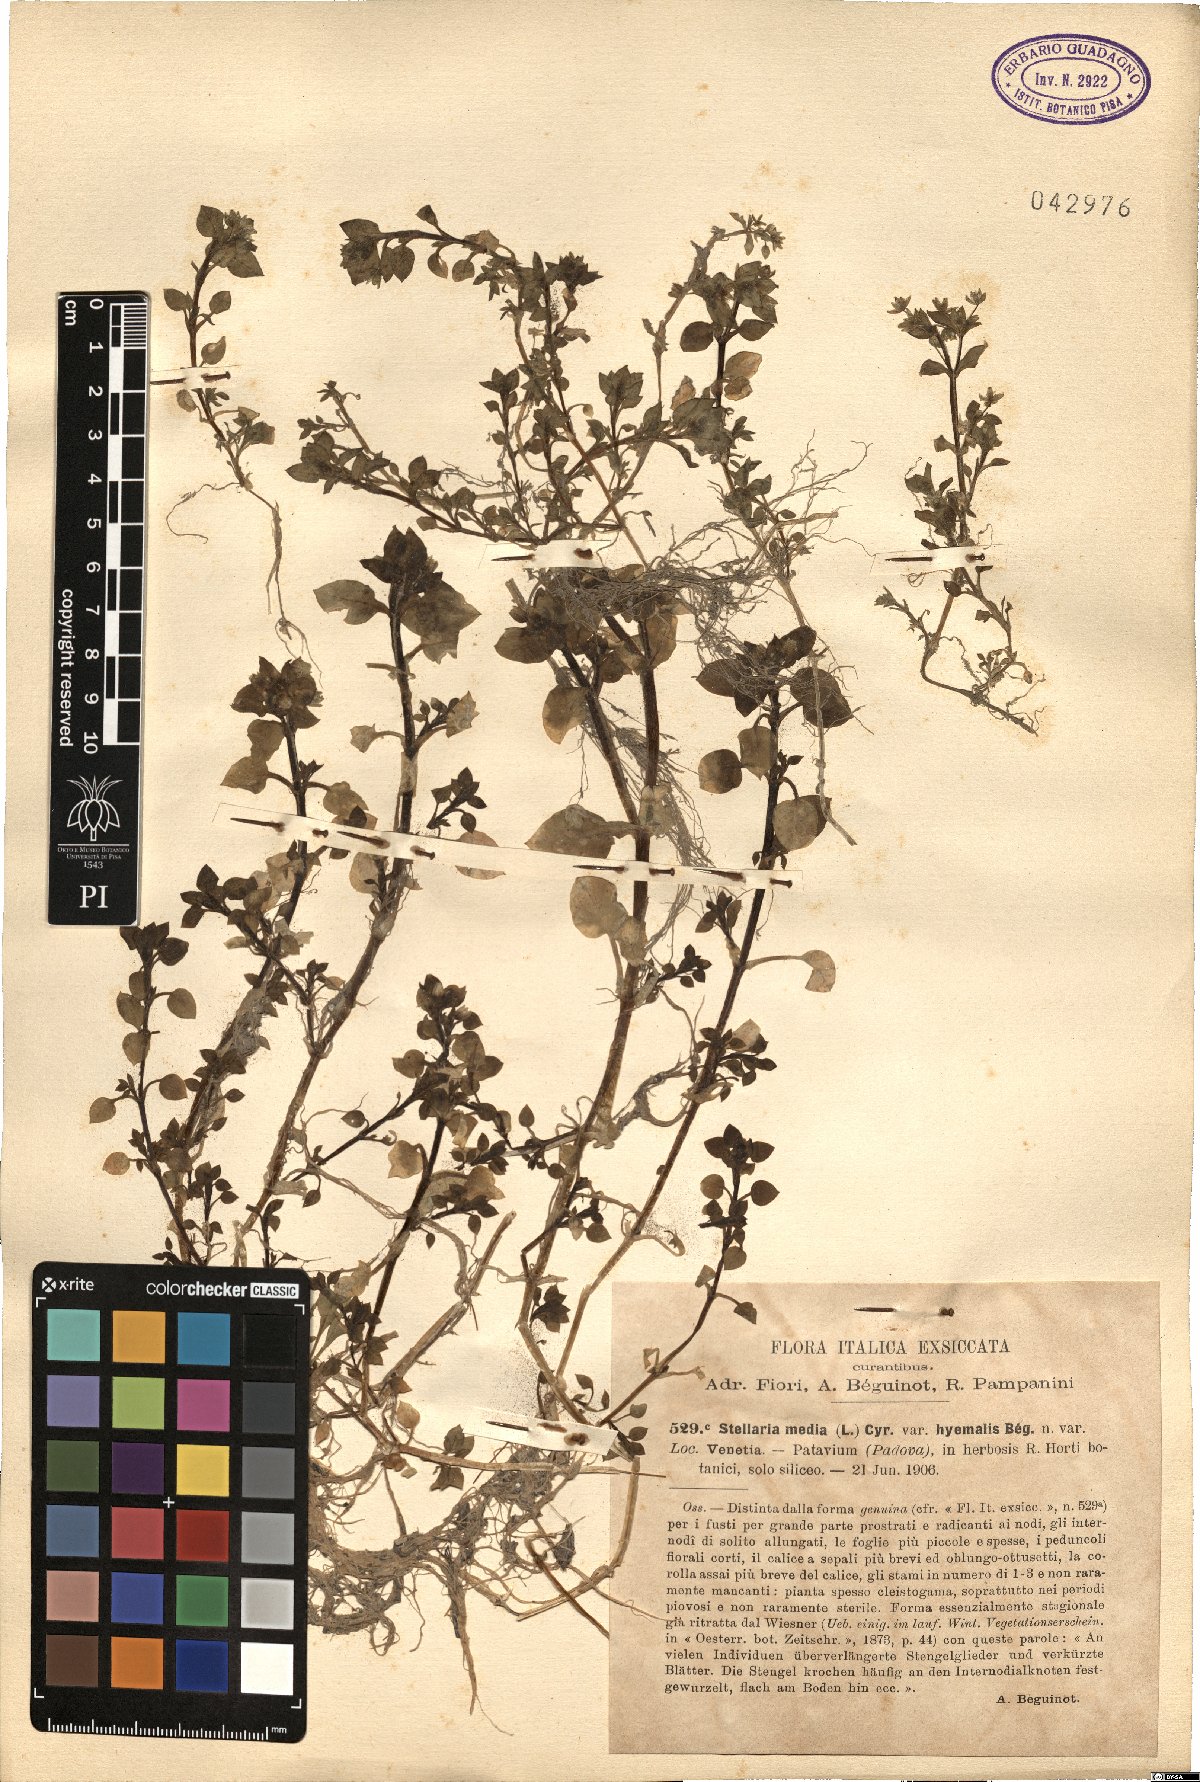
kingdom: Plantae
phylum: Tracheophyta
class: Magnoliopsida
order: Caryophyllales
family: Caryophyllaceae
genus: Stellaria
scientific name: Stellaria media
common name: Common chickweed
